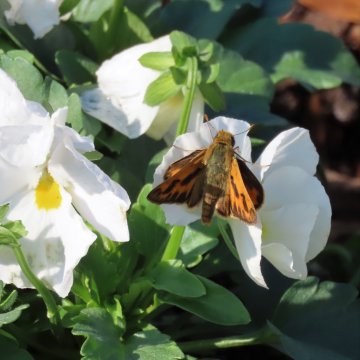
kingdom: Animalia
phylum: Arthropoda
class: Insecta
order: Lepidoptera
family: Hesperiidae
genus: Hylephila
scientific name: Hylephila phyleus
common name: Fiery Skipper
